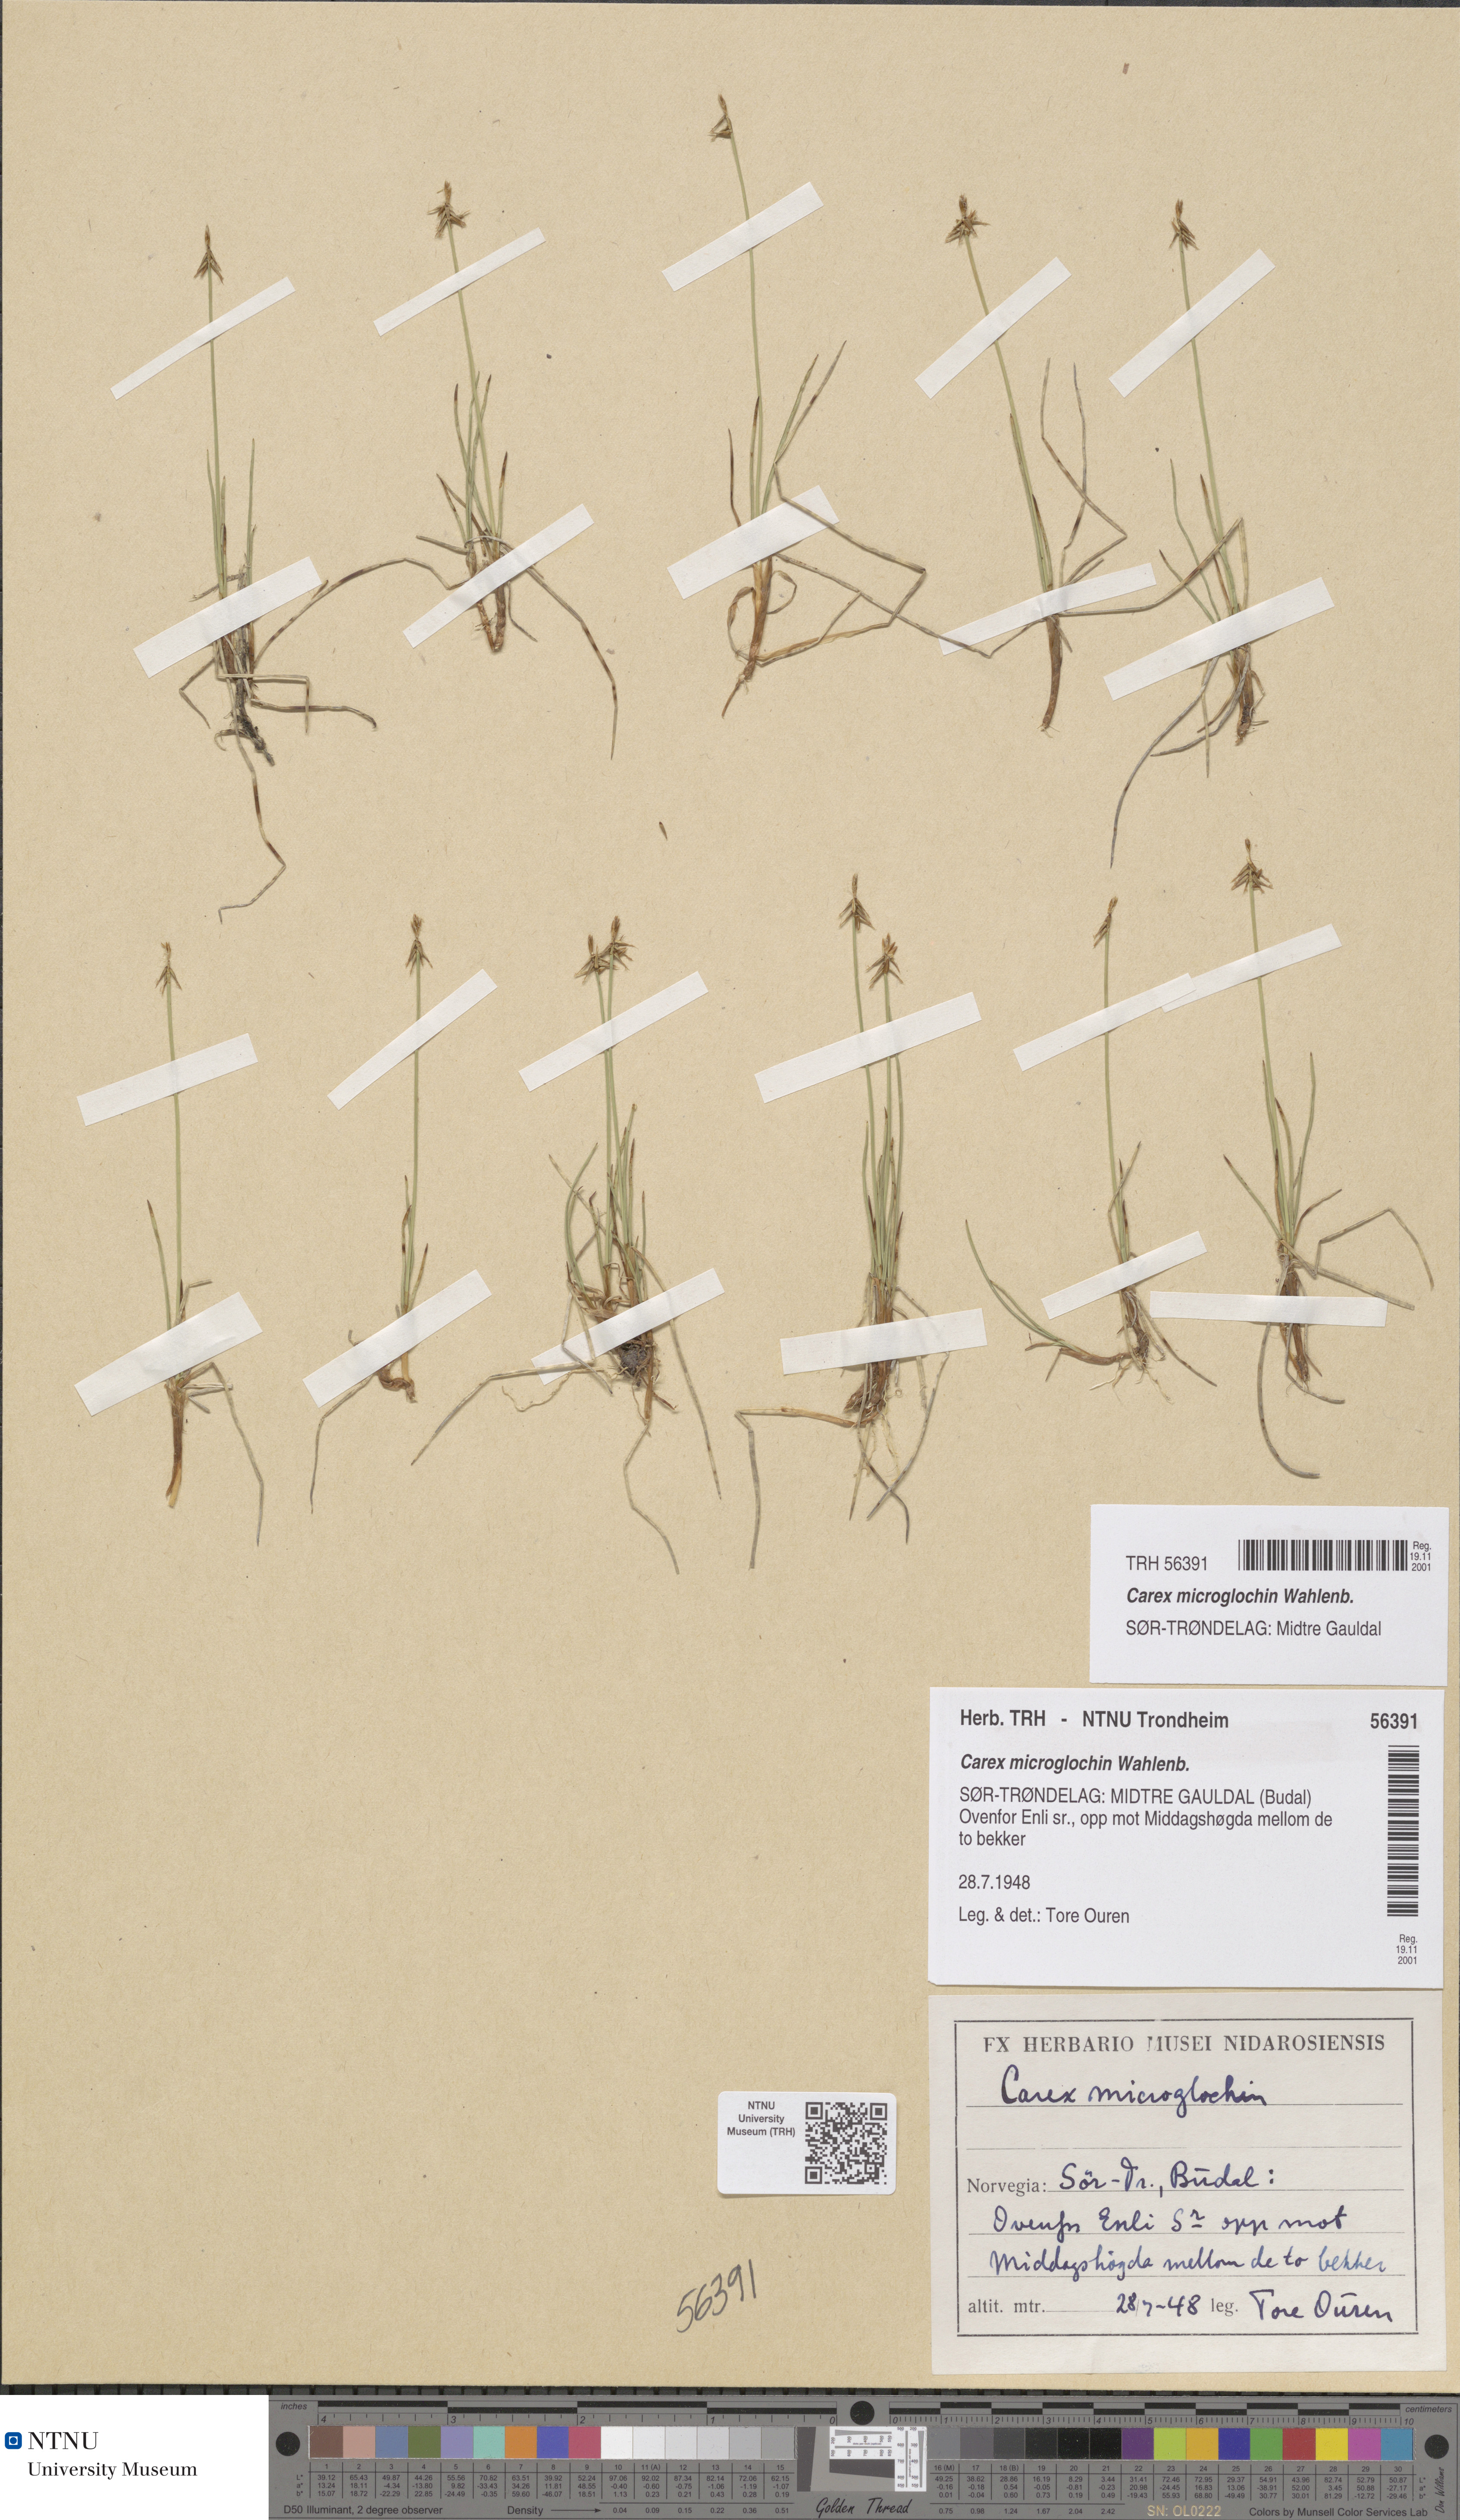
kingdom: Plantae
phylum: Tracheophyta
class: Liliopsida
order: Poales
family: Cyperaceae
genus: Carex
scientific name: Carex microglochin
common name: Bristle sedge
